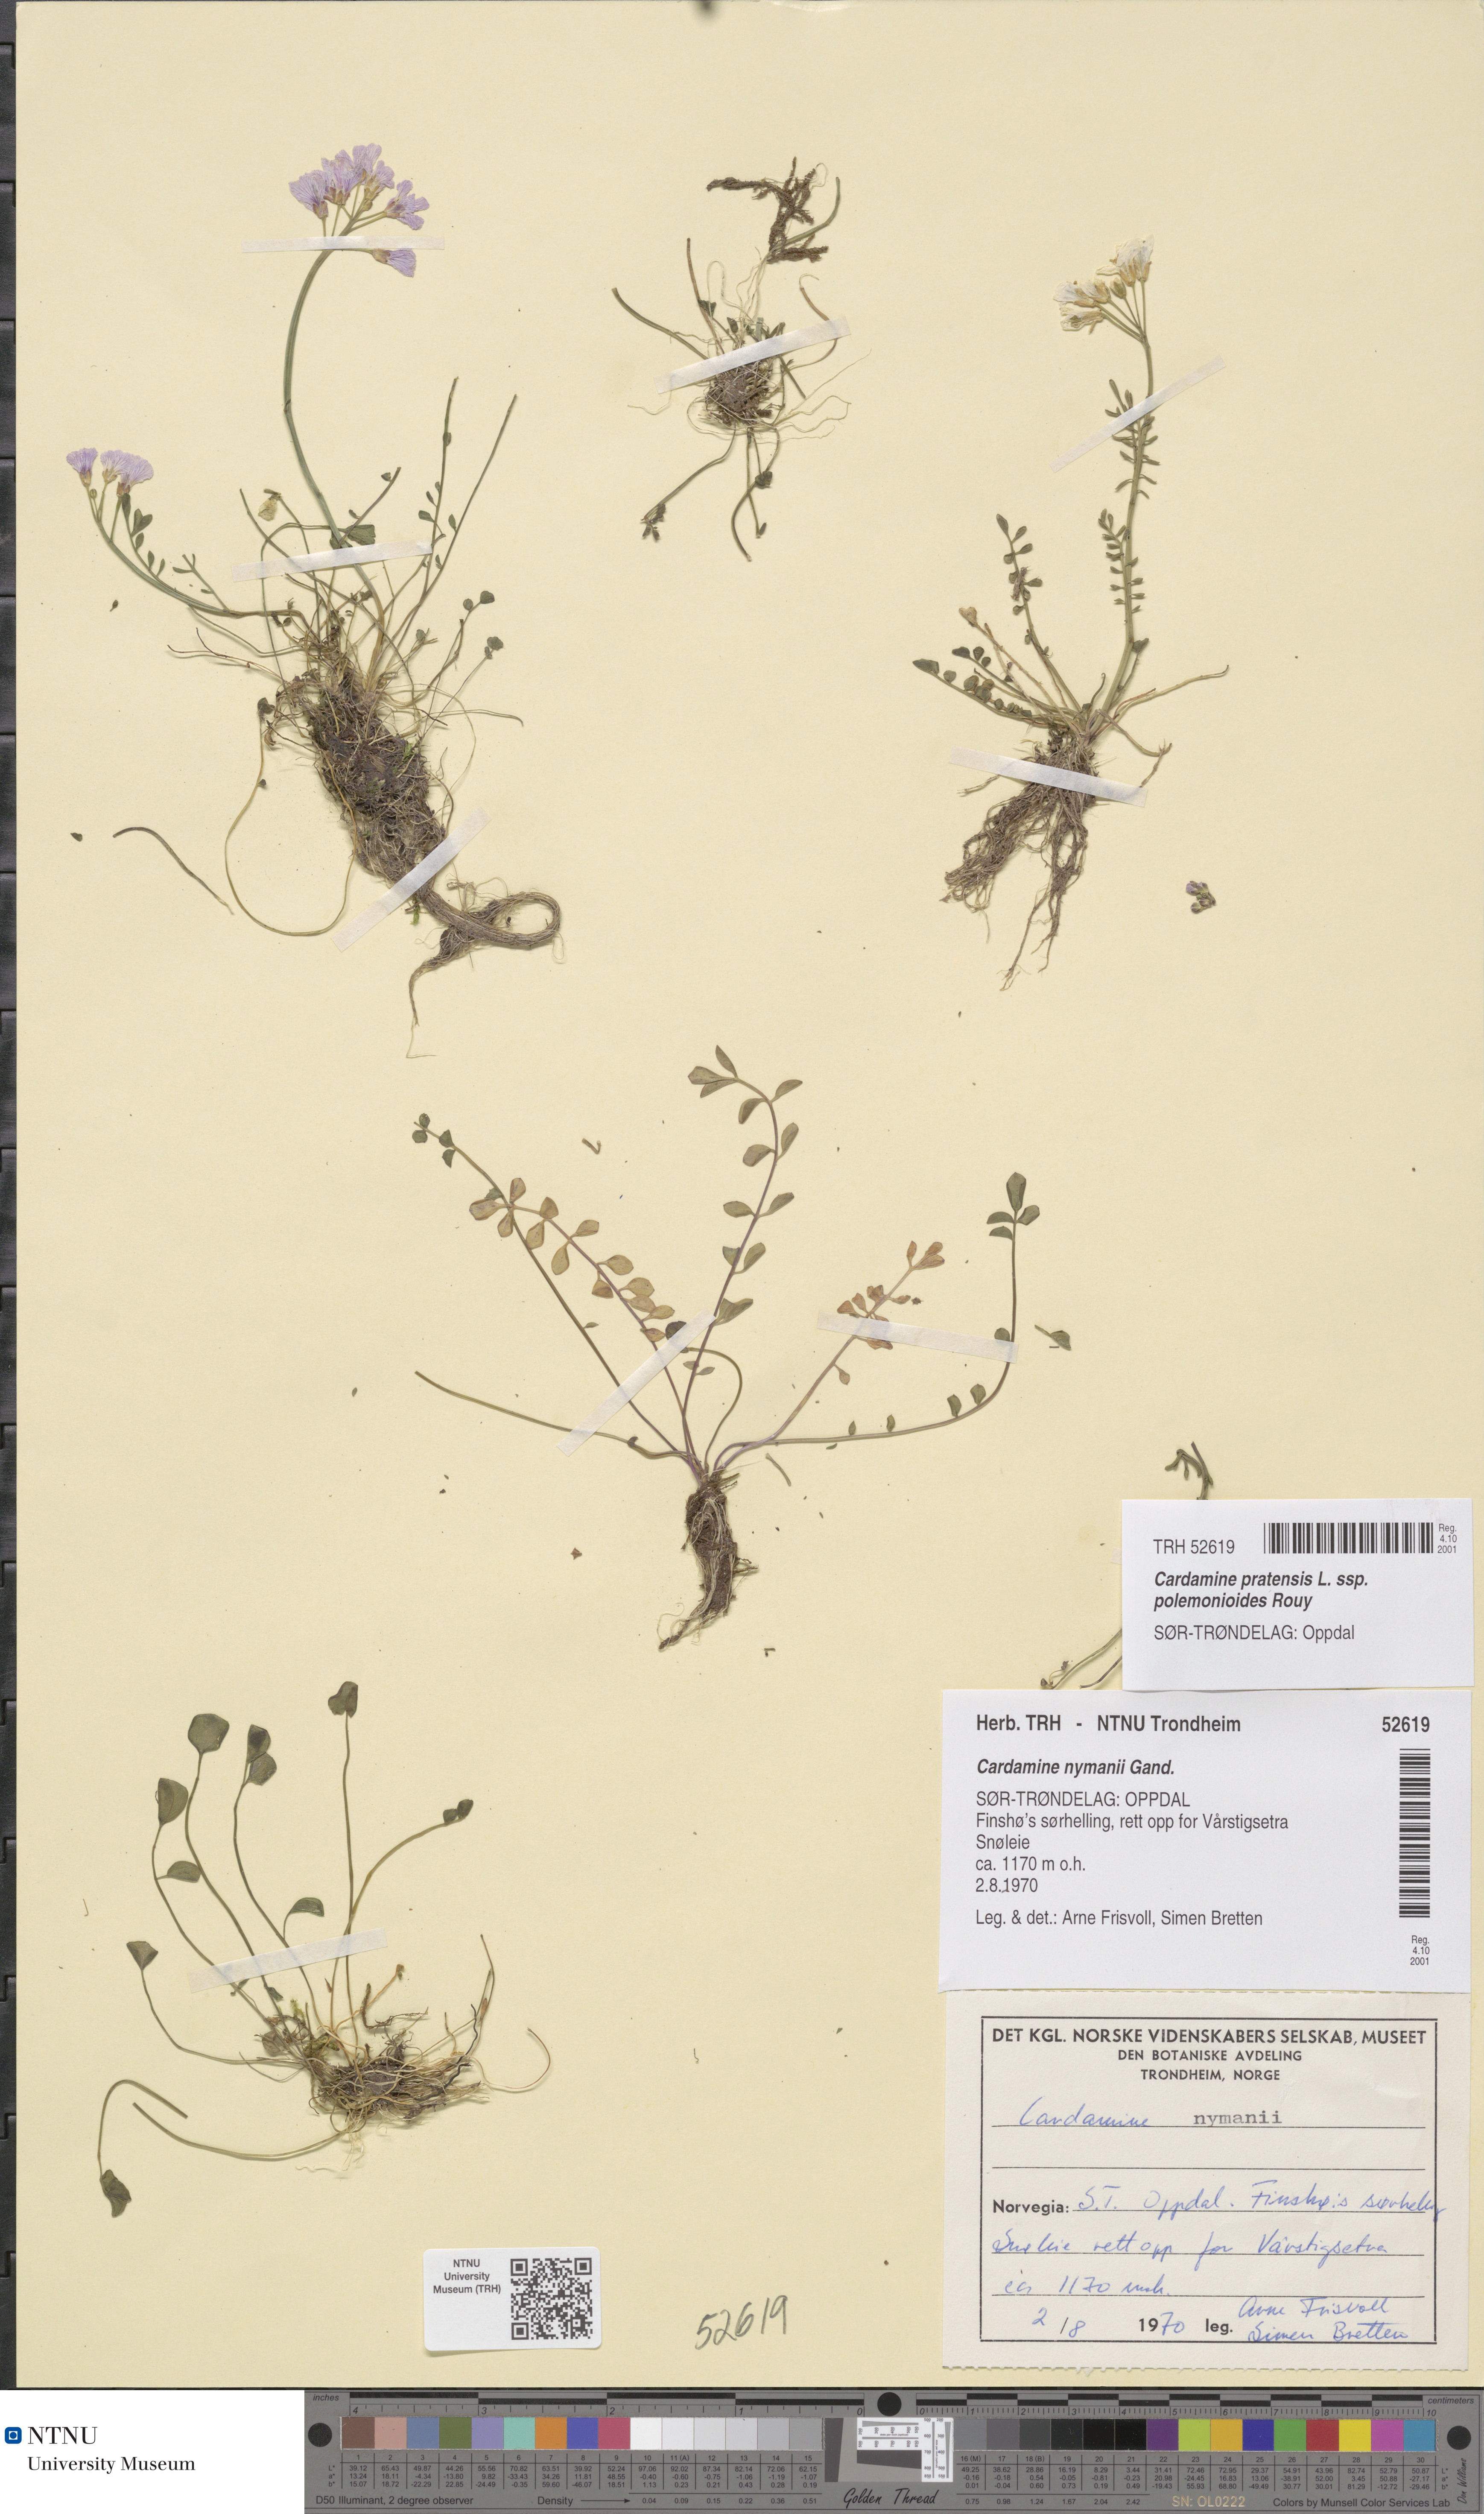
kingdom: Plantae
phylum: Tracheophyta
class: Magnoliopsida
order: Brassicales
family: Brassicaceae
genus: Cardamine
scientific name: Cardamine nymanii
